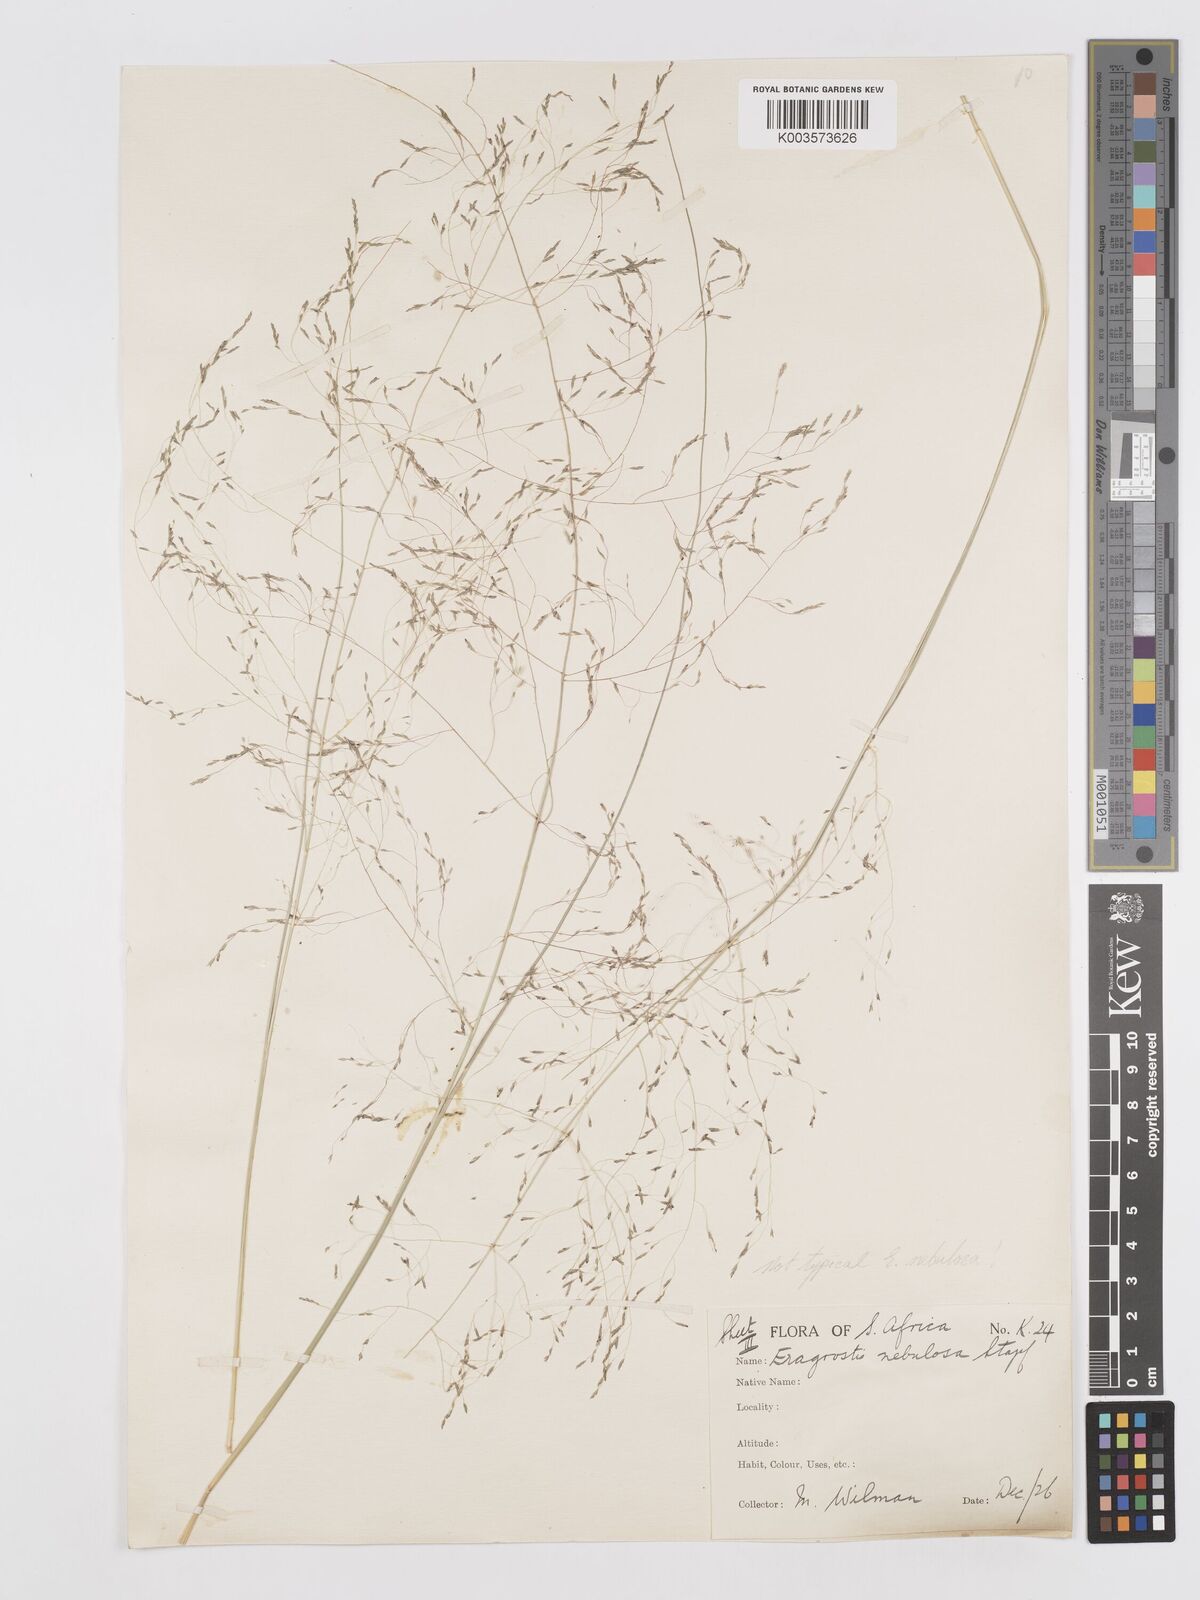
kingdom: Plantae
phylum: Tracheophyta
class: Liliopsida
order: Poales
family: Poaceae
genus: Eragrostis
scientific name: Eragrostis planiculmis
